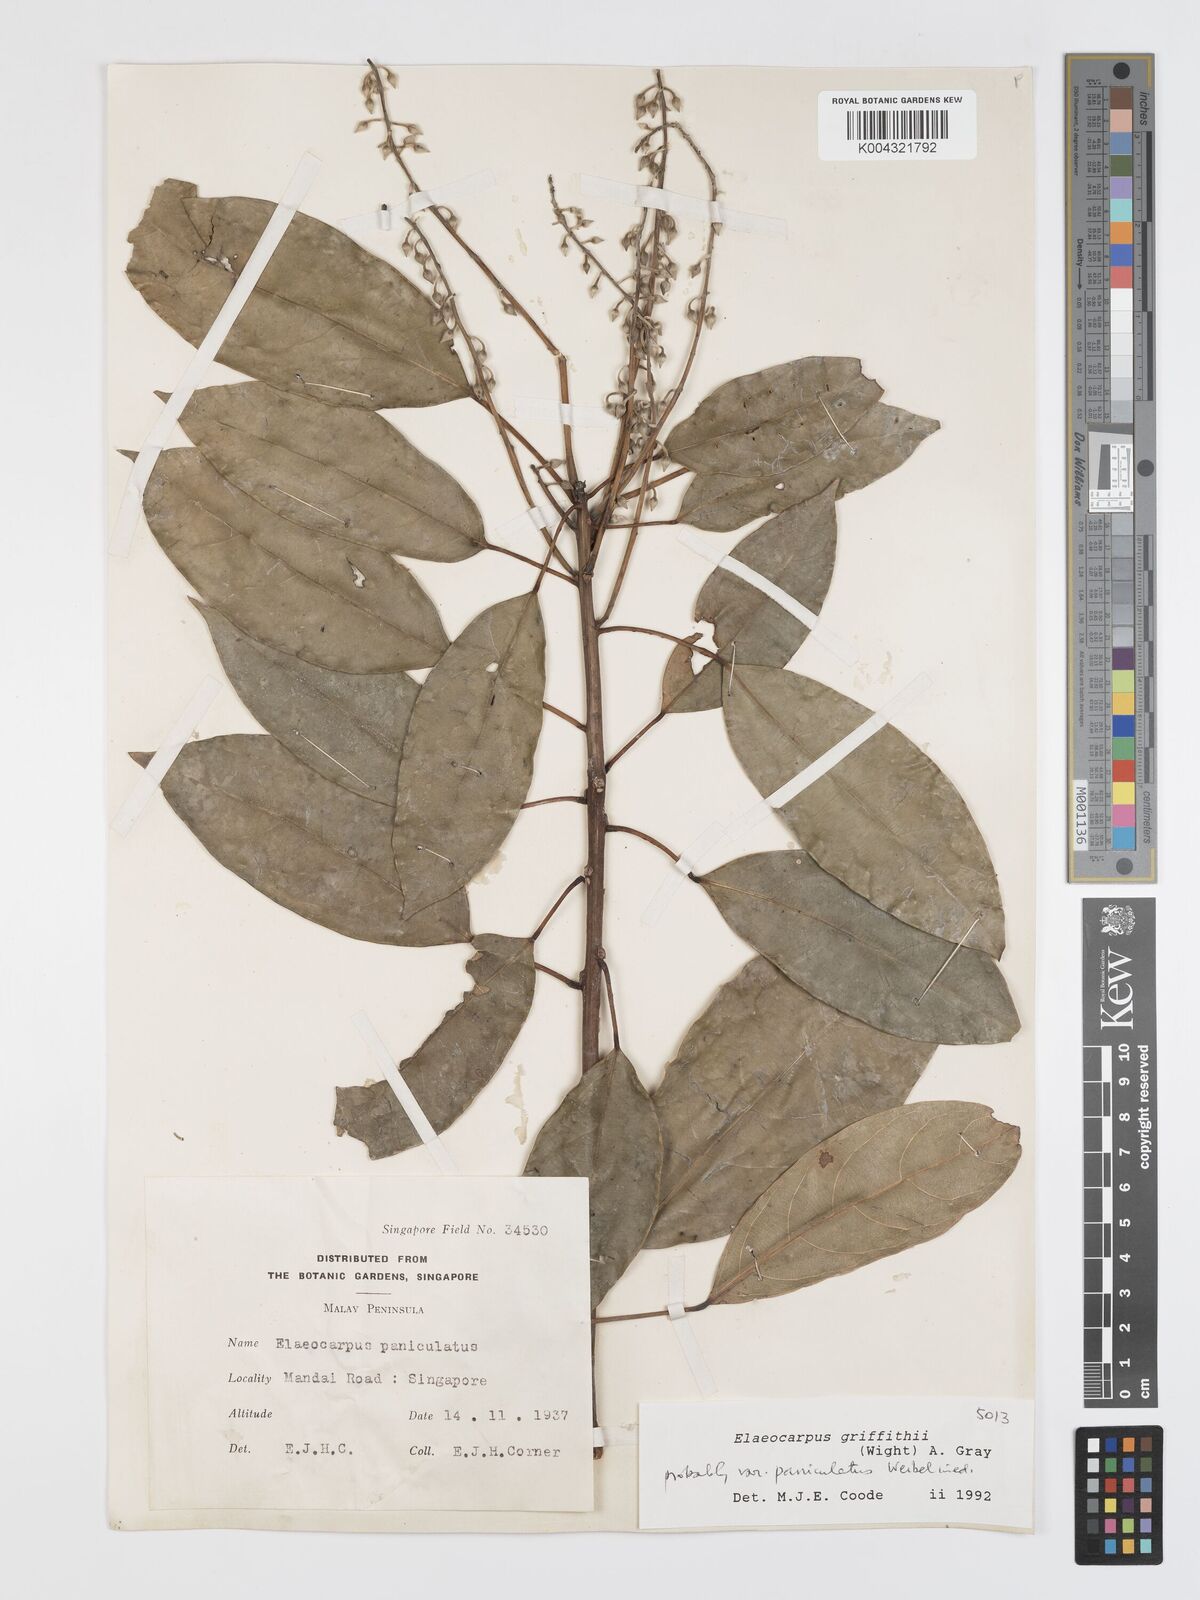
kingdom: Plantae
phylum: Tracheophyta
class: Magnoliopsida
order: Oxalidales
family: Elaeocarpaceae
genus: Elaeocarpus
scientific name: Elaeocarpus griffithii
